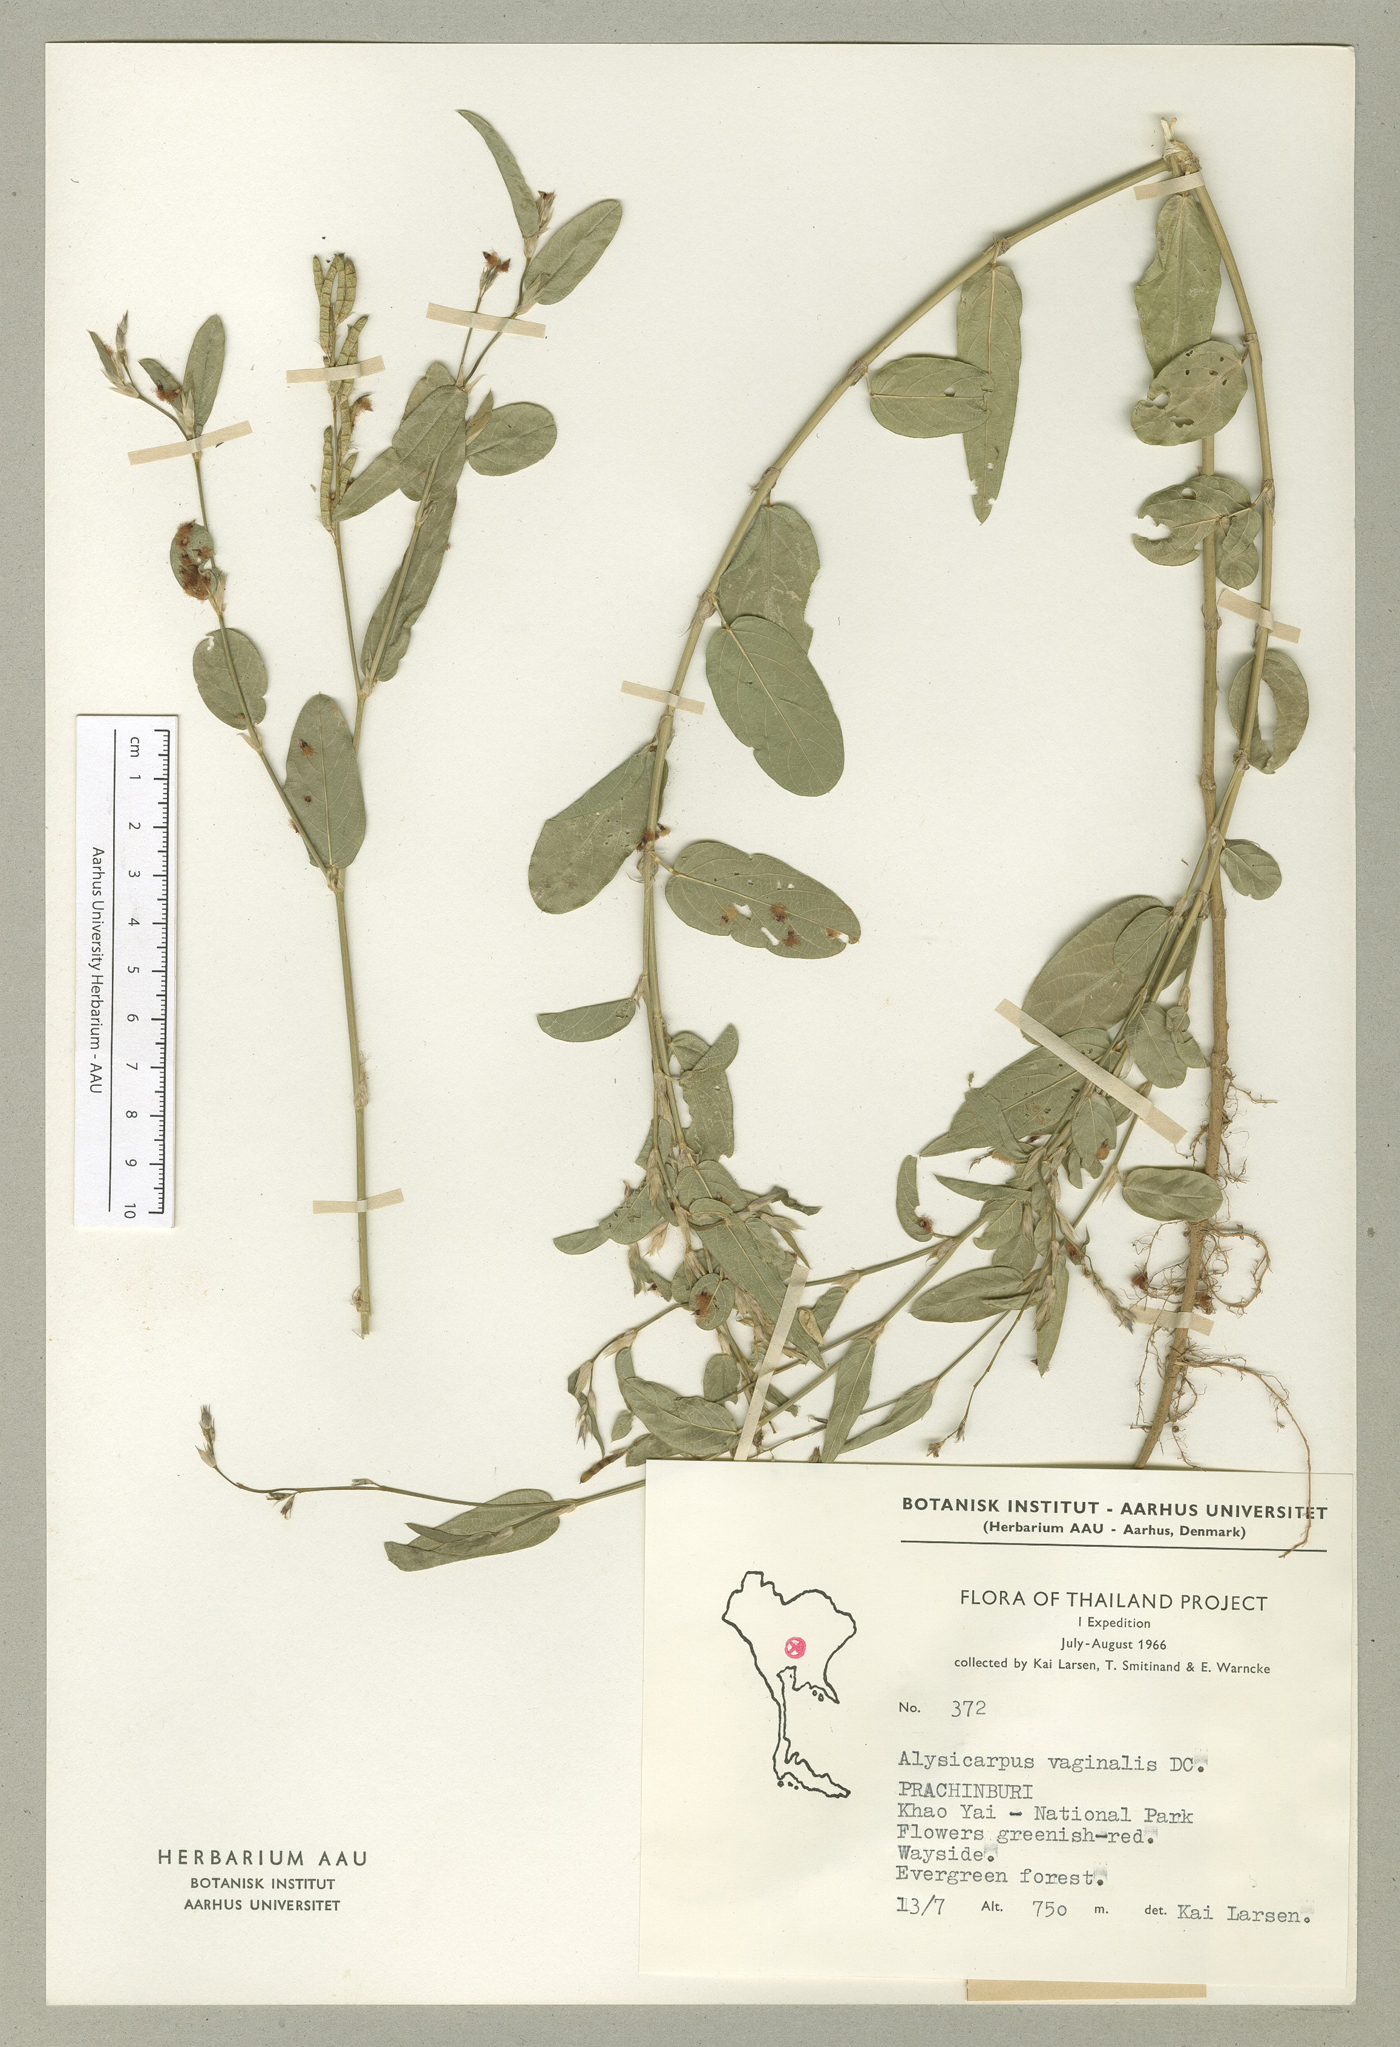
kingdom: Plantae
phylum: Tracheophyta
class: Magnoliopsida
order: Fabales
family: Fabaceae
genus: Alysicarpus
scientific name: Alysicarpus vaginalis
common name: White moneywort
